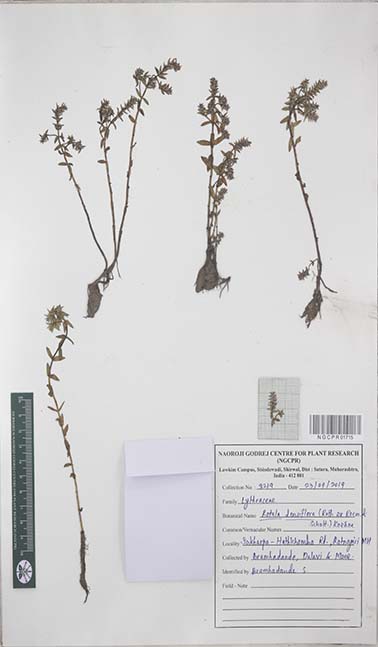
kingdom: Plantae
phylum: Tracheophyta
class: Magnoliopsida
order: Myrtales
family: Lythraceae
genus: Rotala
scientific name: Rotala densiflora
